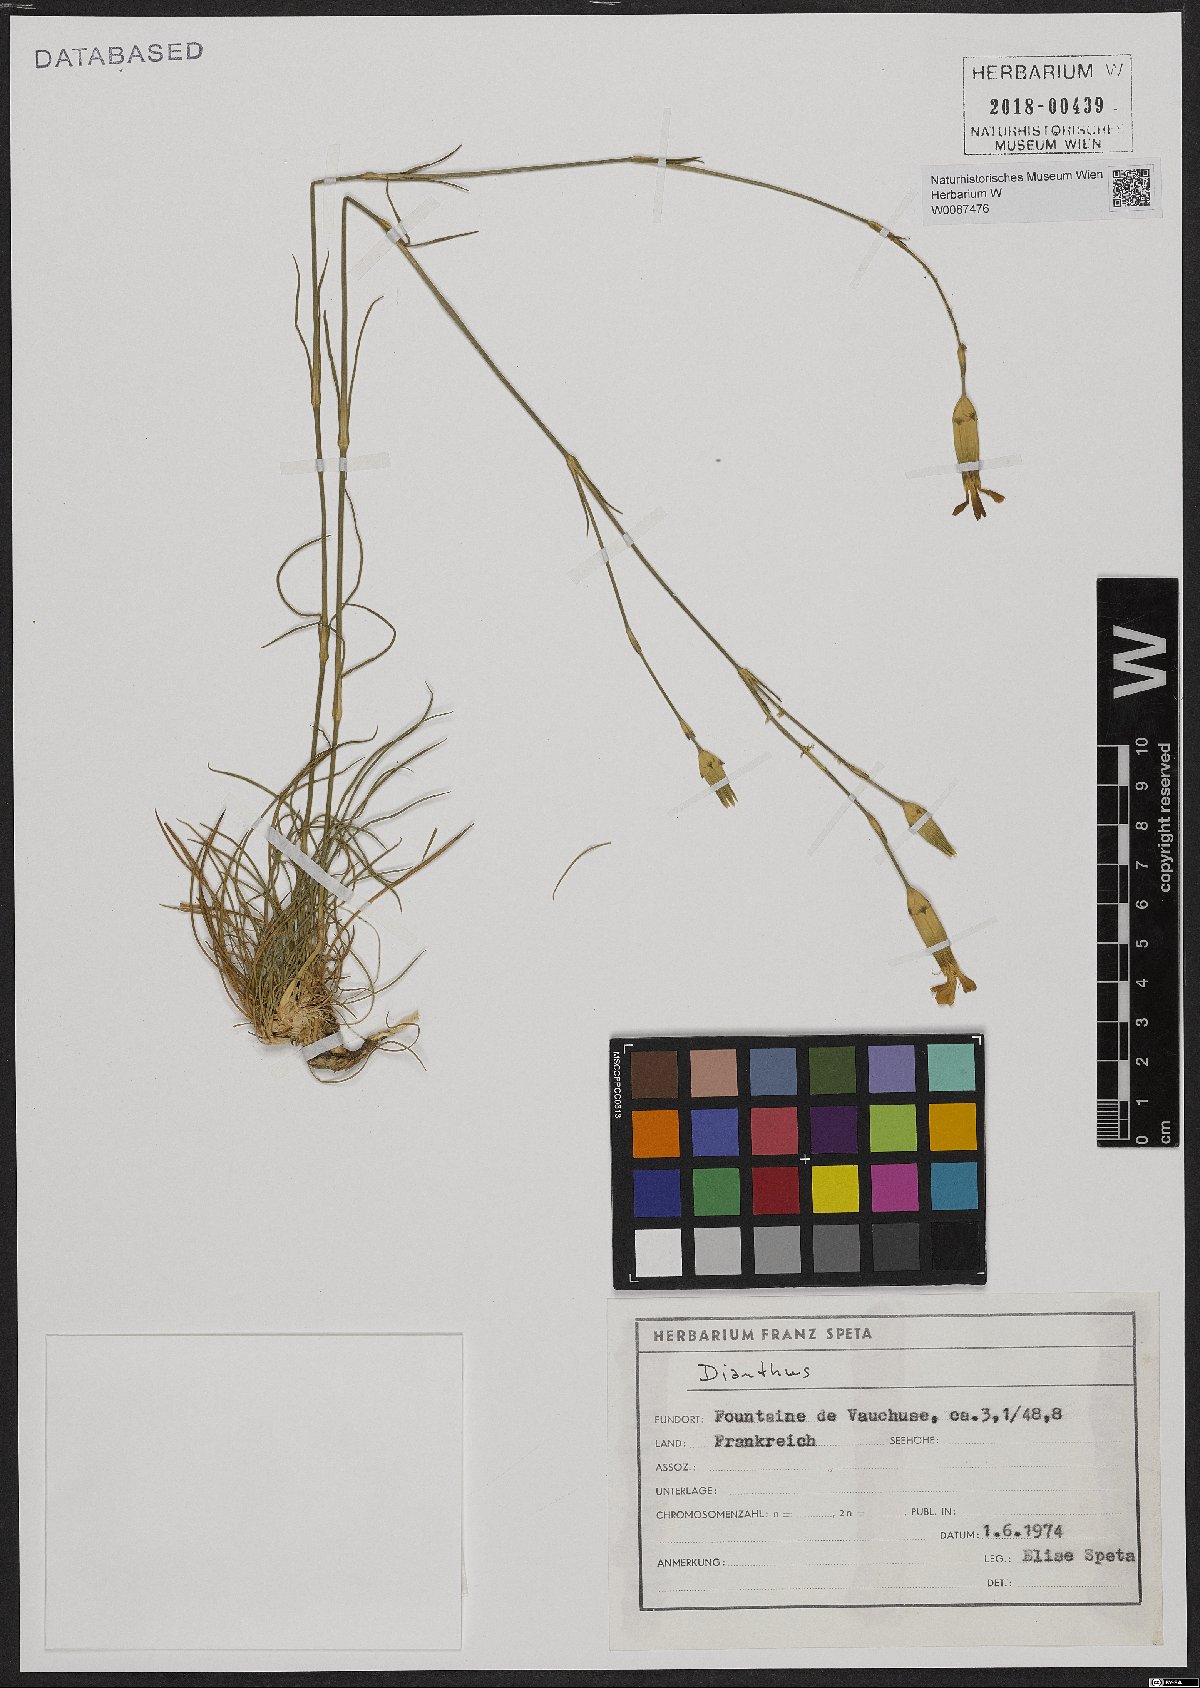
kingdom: Plantae
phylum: Tracheophyta
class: Magnoliopsida
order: Caryophyllales
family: Caryophyllaceae
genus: Dianthus
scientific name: Dianthus
